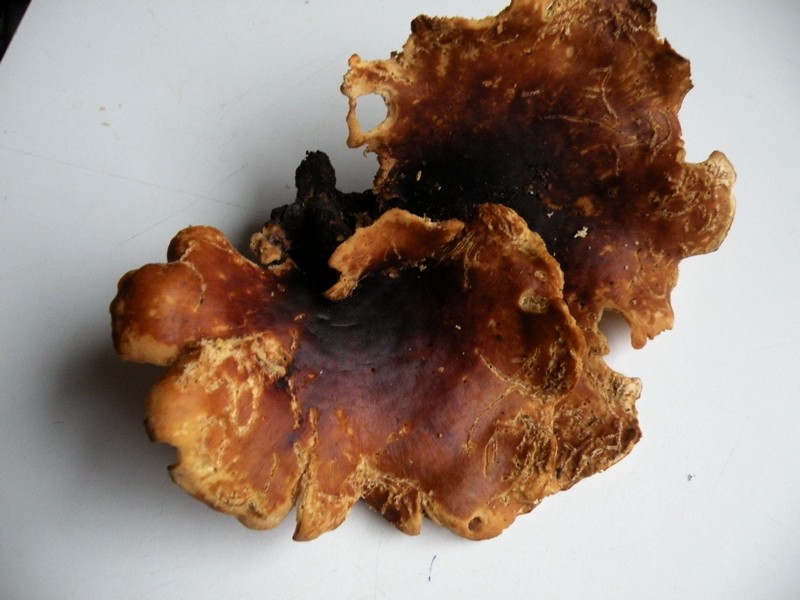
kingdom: Fungi
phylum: Basidiomycota
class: Agaricomycetes
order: Polyporales
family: Polyporaceae
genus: Picipes
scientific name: Picipes badius
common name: kastaniebrun stilkporesvamp
